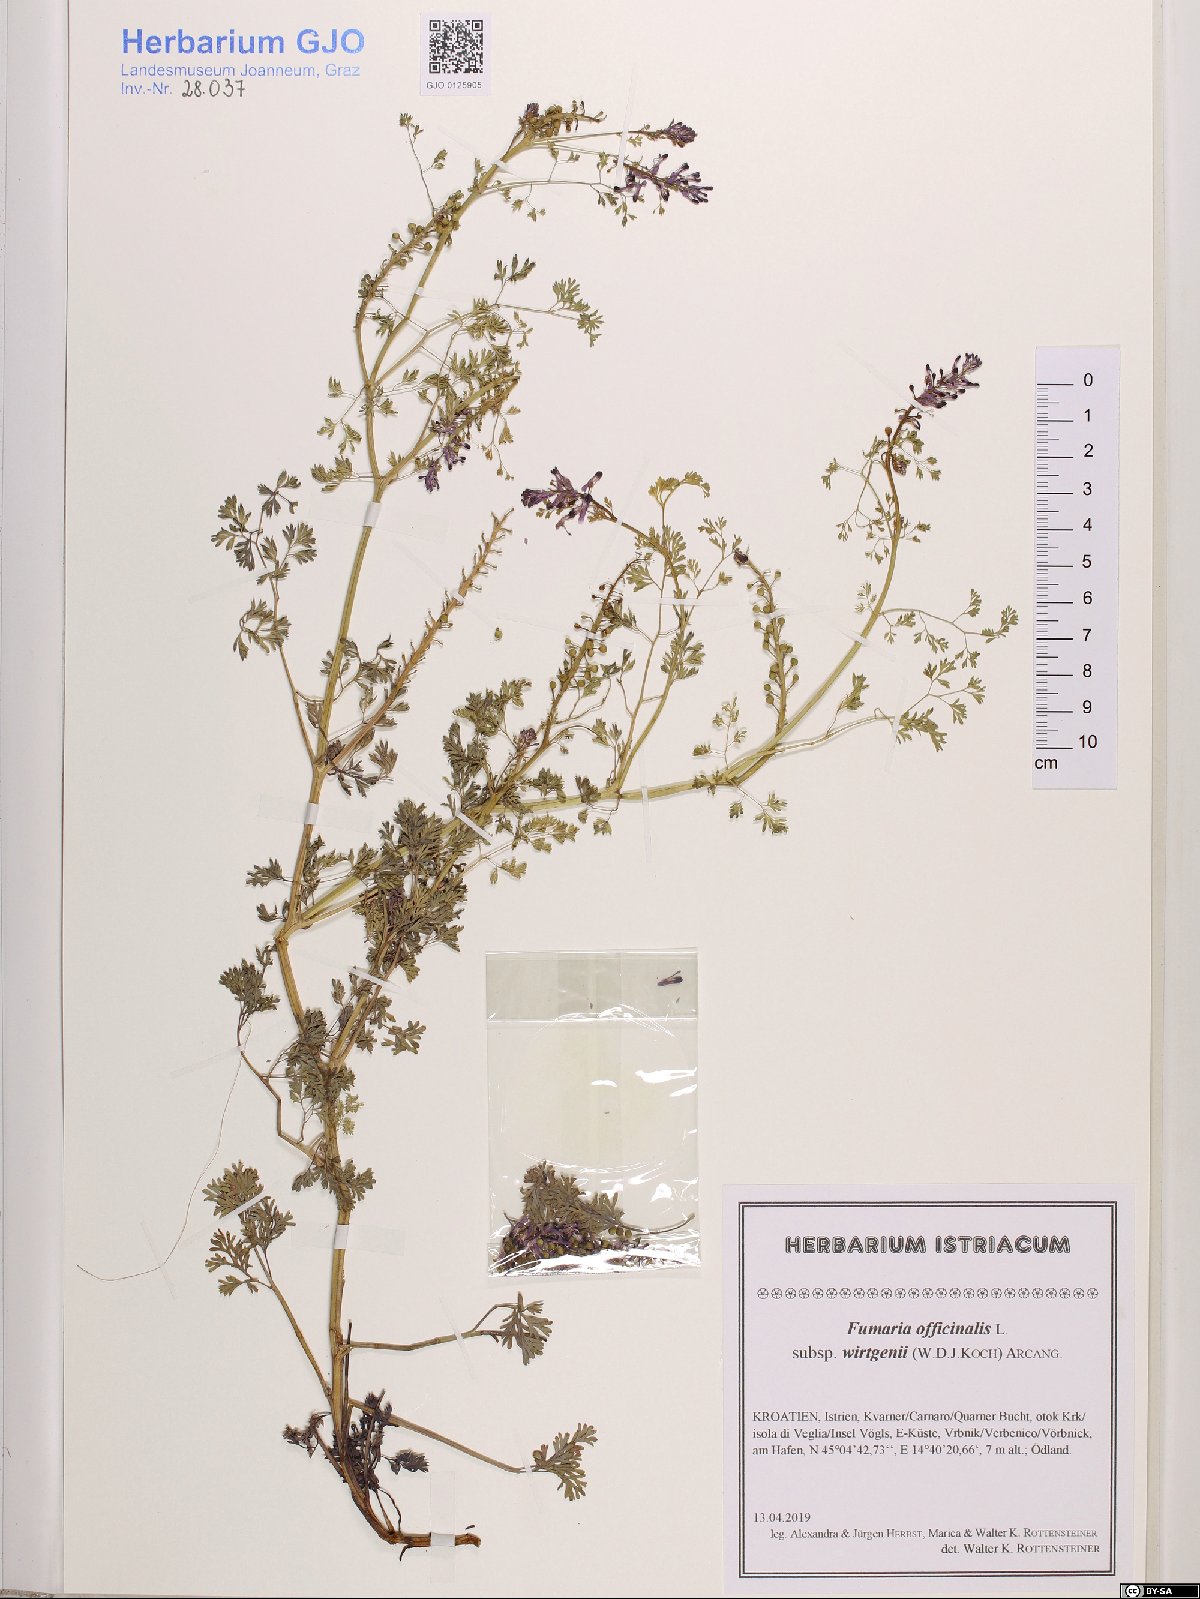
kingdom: Plantae
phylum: Tracheophyta
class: Magnoliopsida
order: Ranunculales
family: Papaveraceae
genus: Fumaria
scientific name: Fumaria wirtgenii
